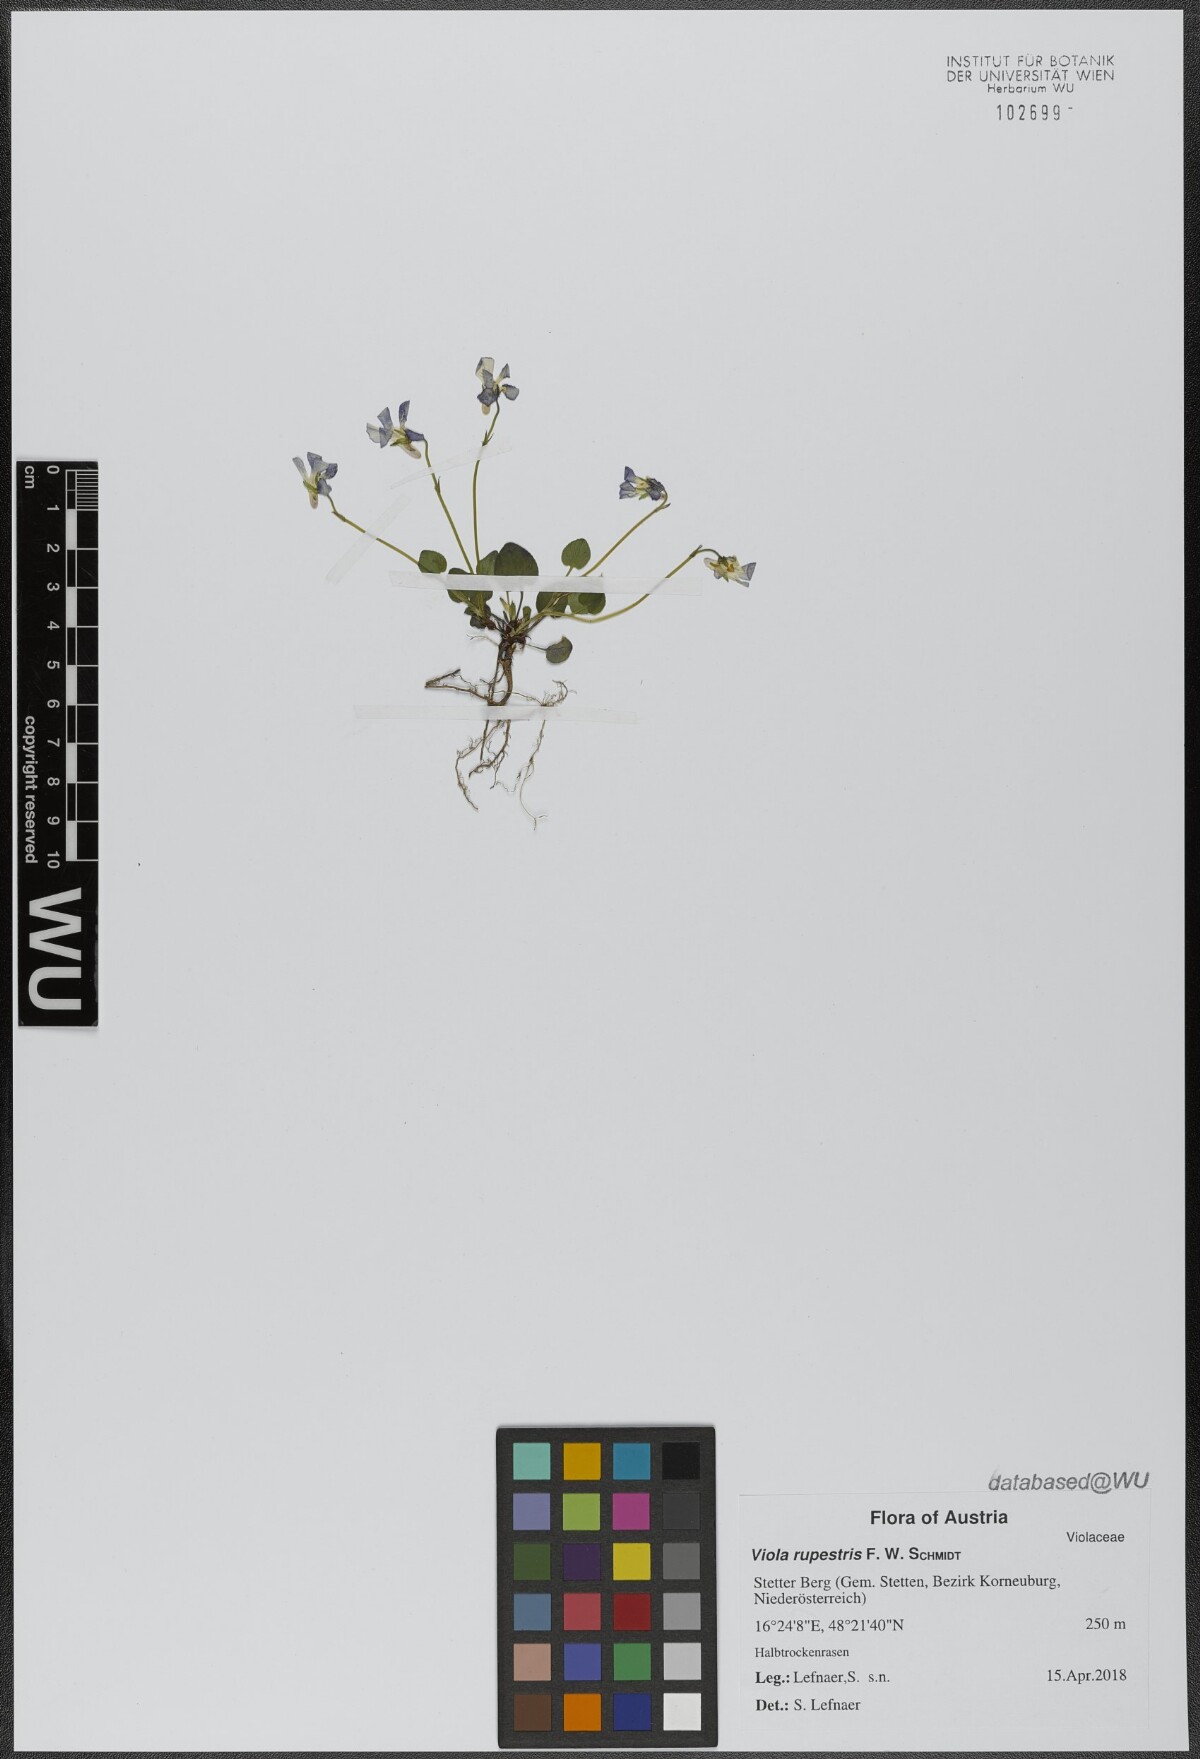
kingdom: Plantae
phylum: Tracheophyta
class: Magnoliopsida
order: Malpighiales
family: Violaceae
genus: Viola
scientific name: Viola rupestris
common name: Teesdale violet
